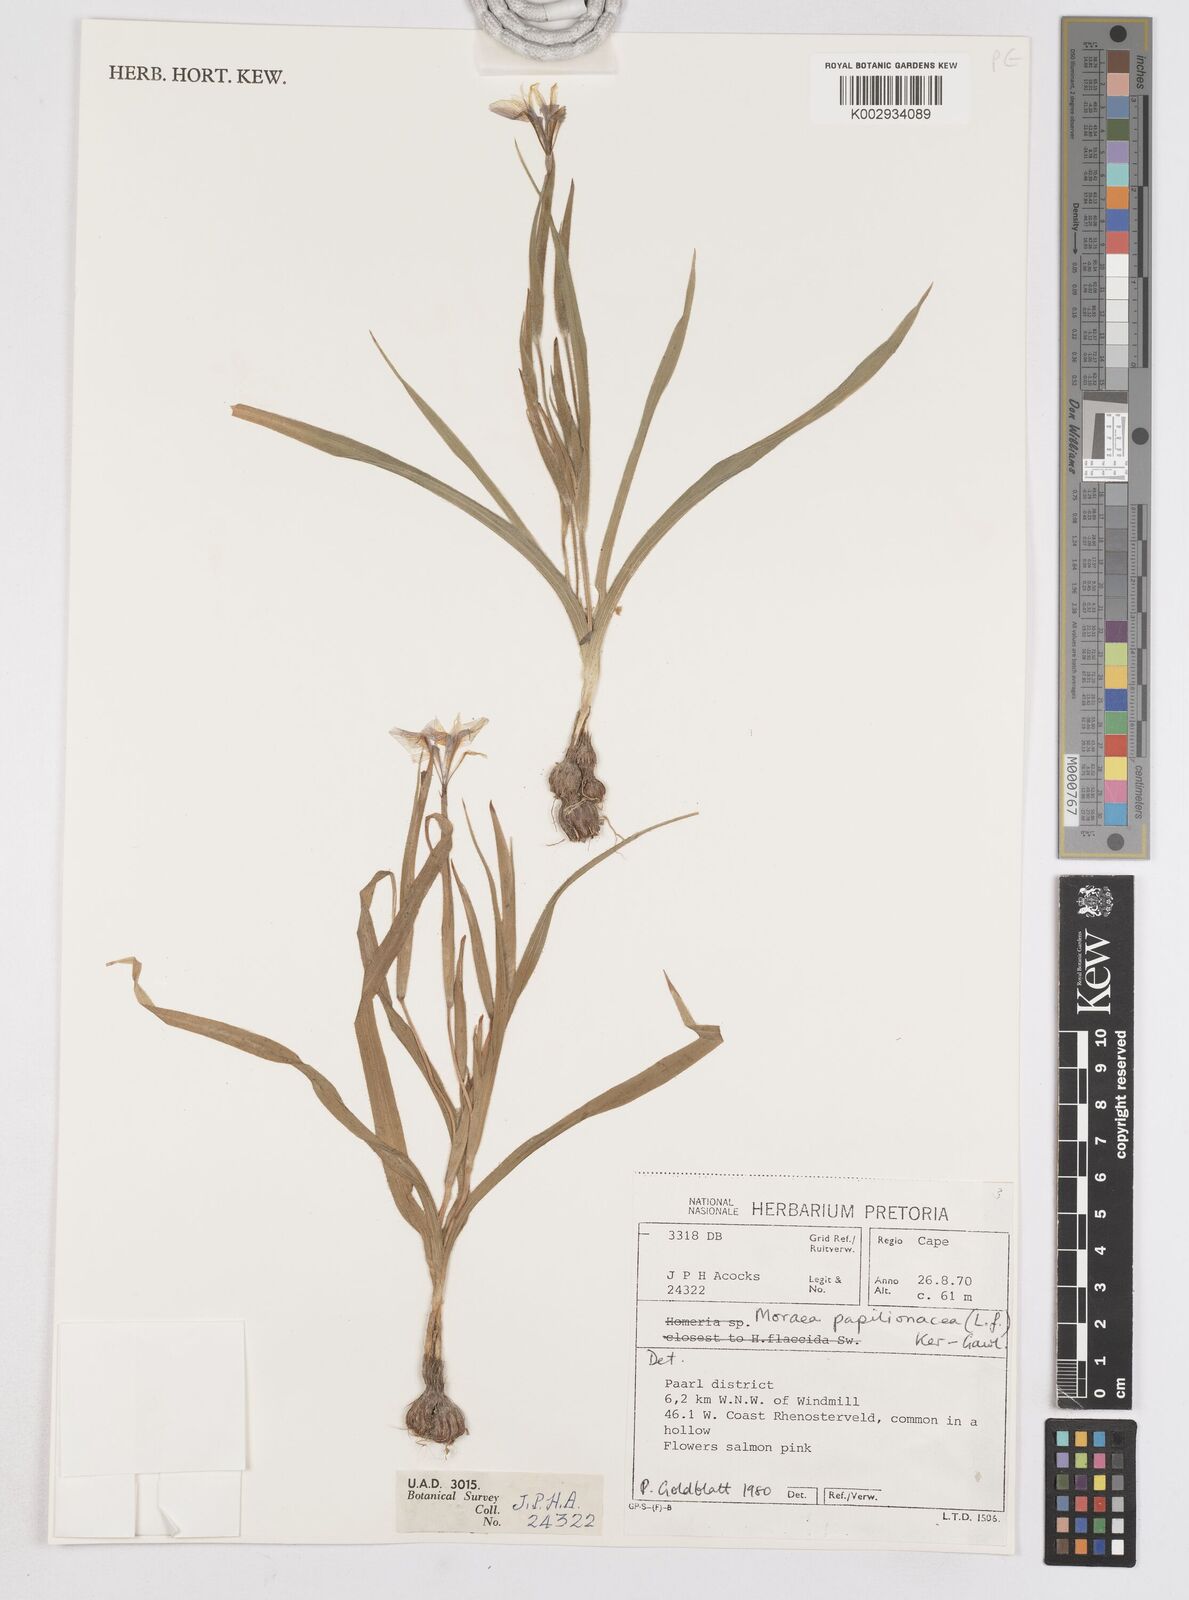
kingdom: Plantae
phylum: Tracheophyta
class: Liliopsida
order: Asparagales
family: Iridaceae
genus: Moraea
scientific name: Moraea papilionacea
